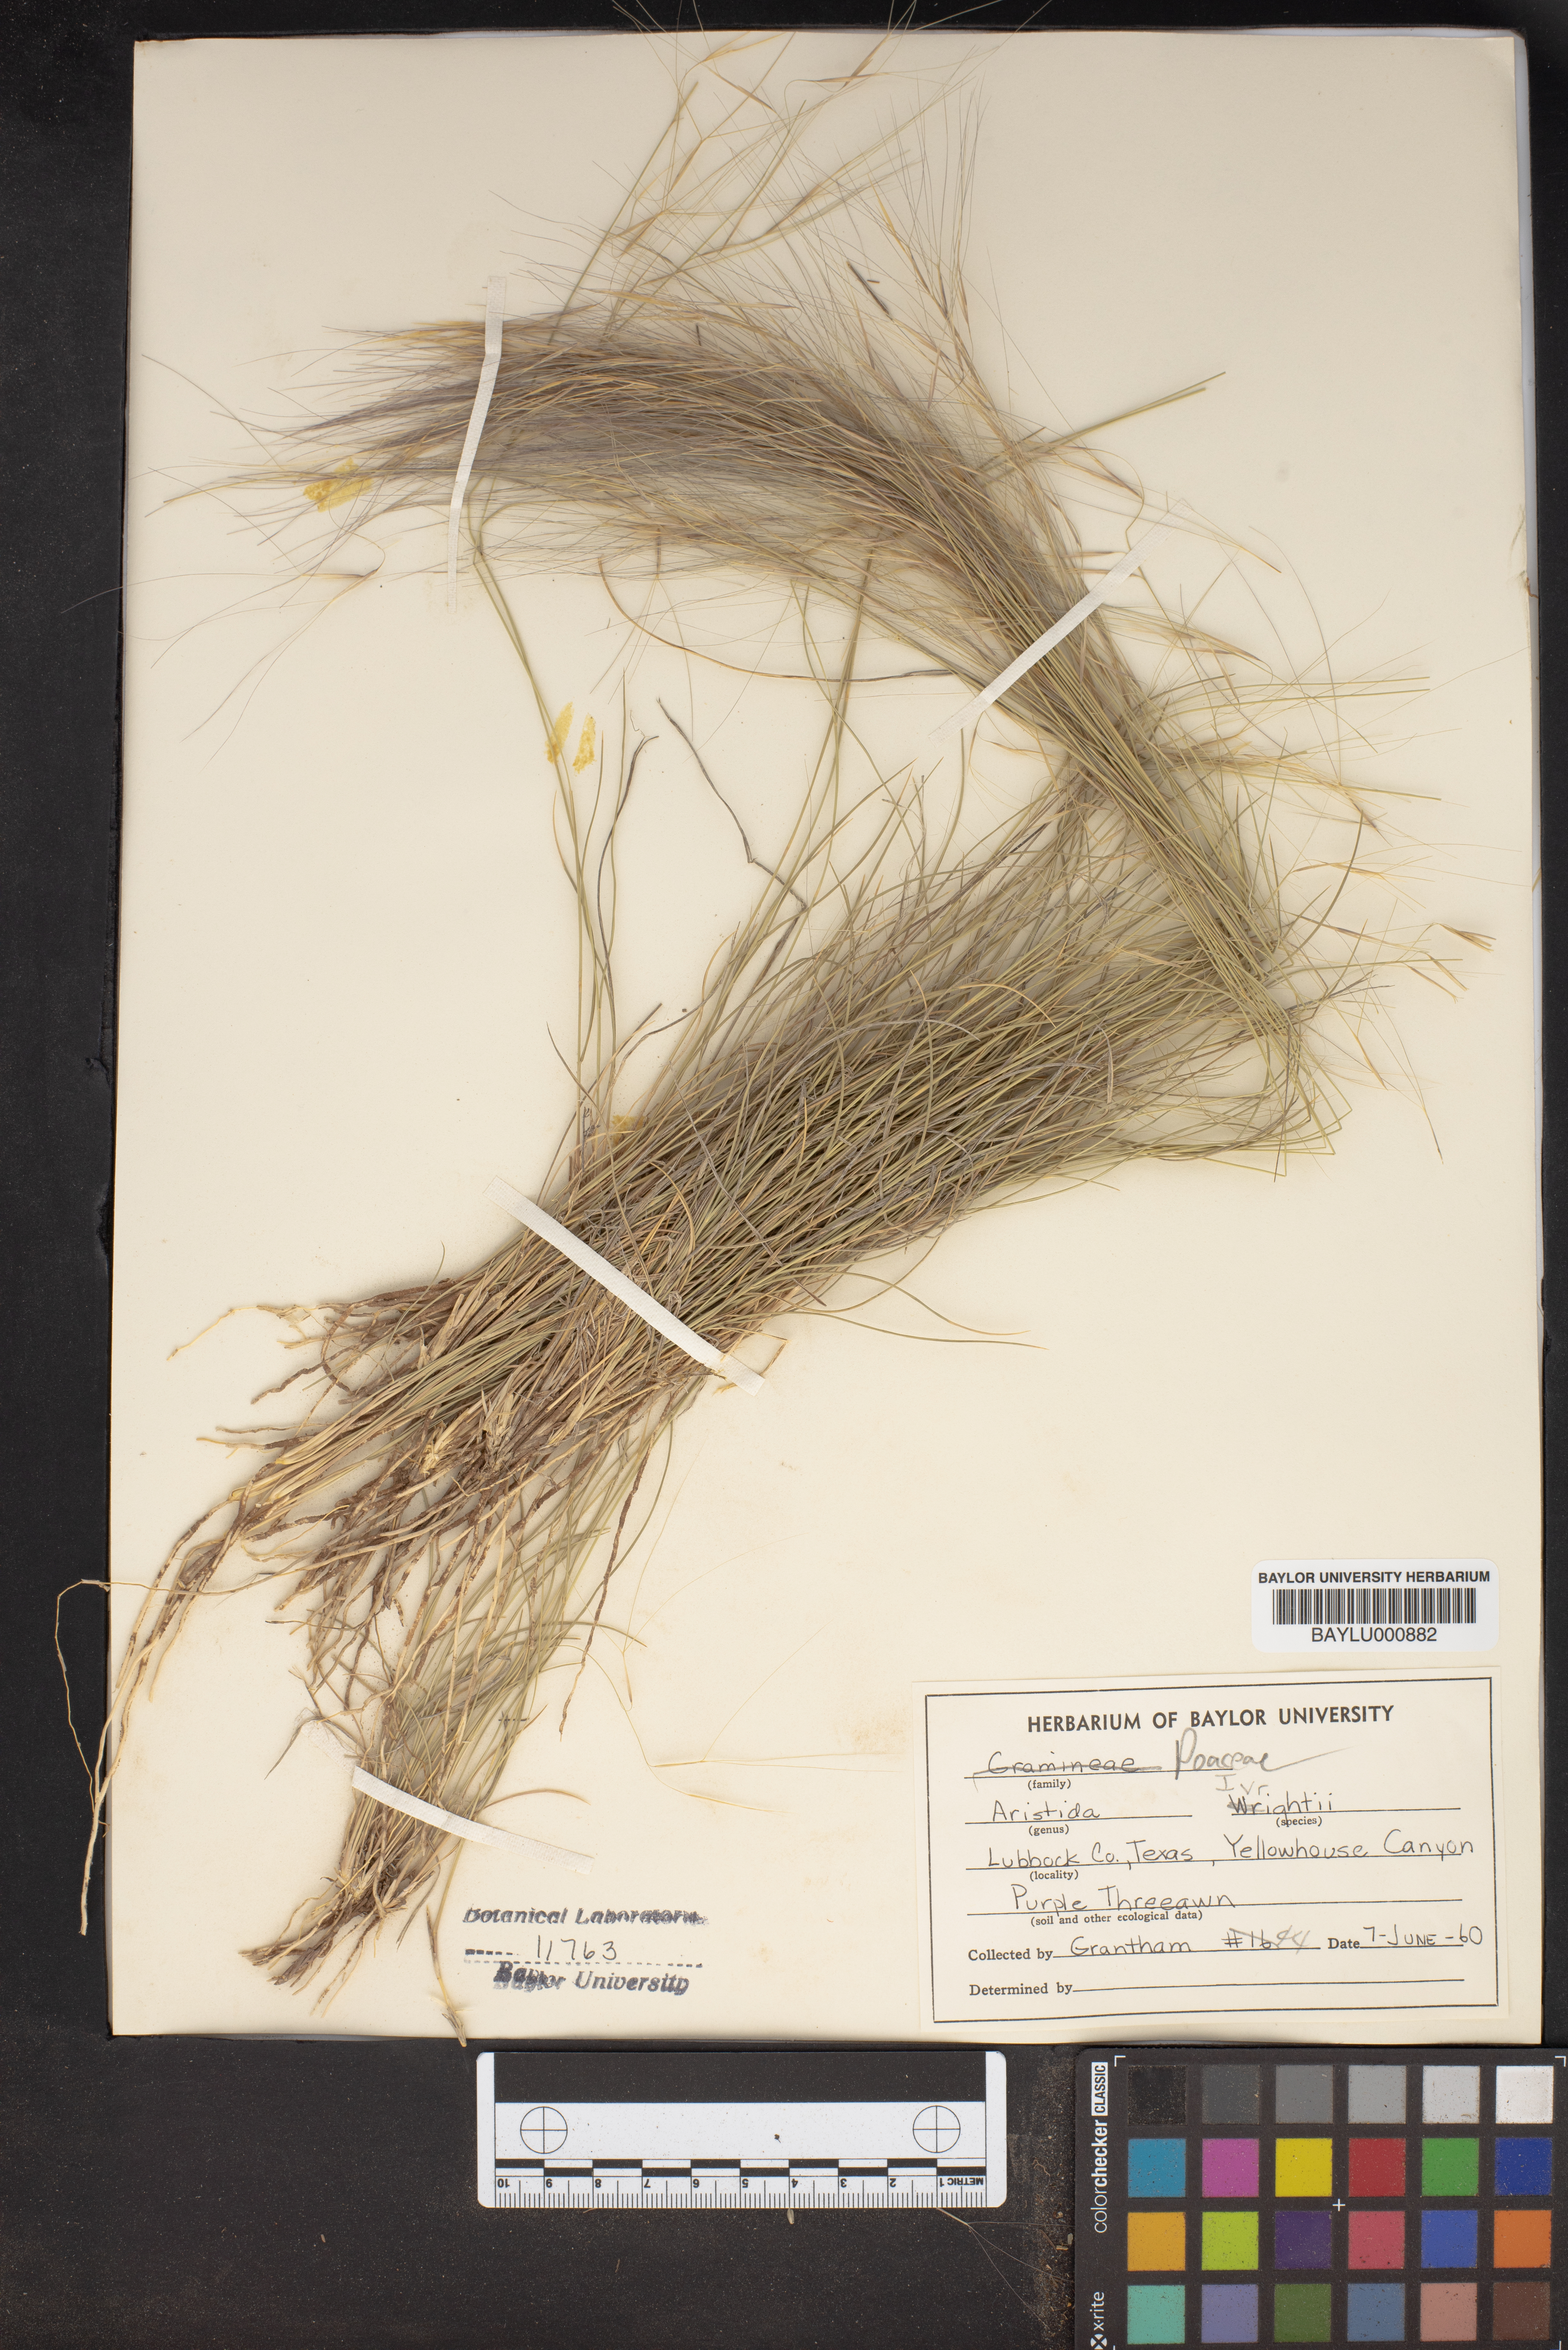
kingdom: Plantae
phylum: Tracheophyta
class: Liliopsida
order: Poales
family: Poaceae
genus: Aristida
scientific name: Aristida wrightii
